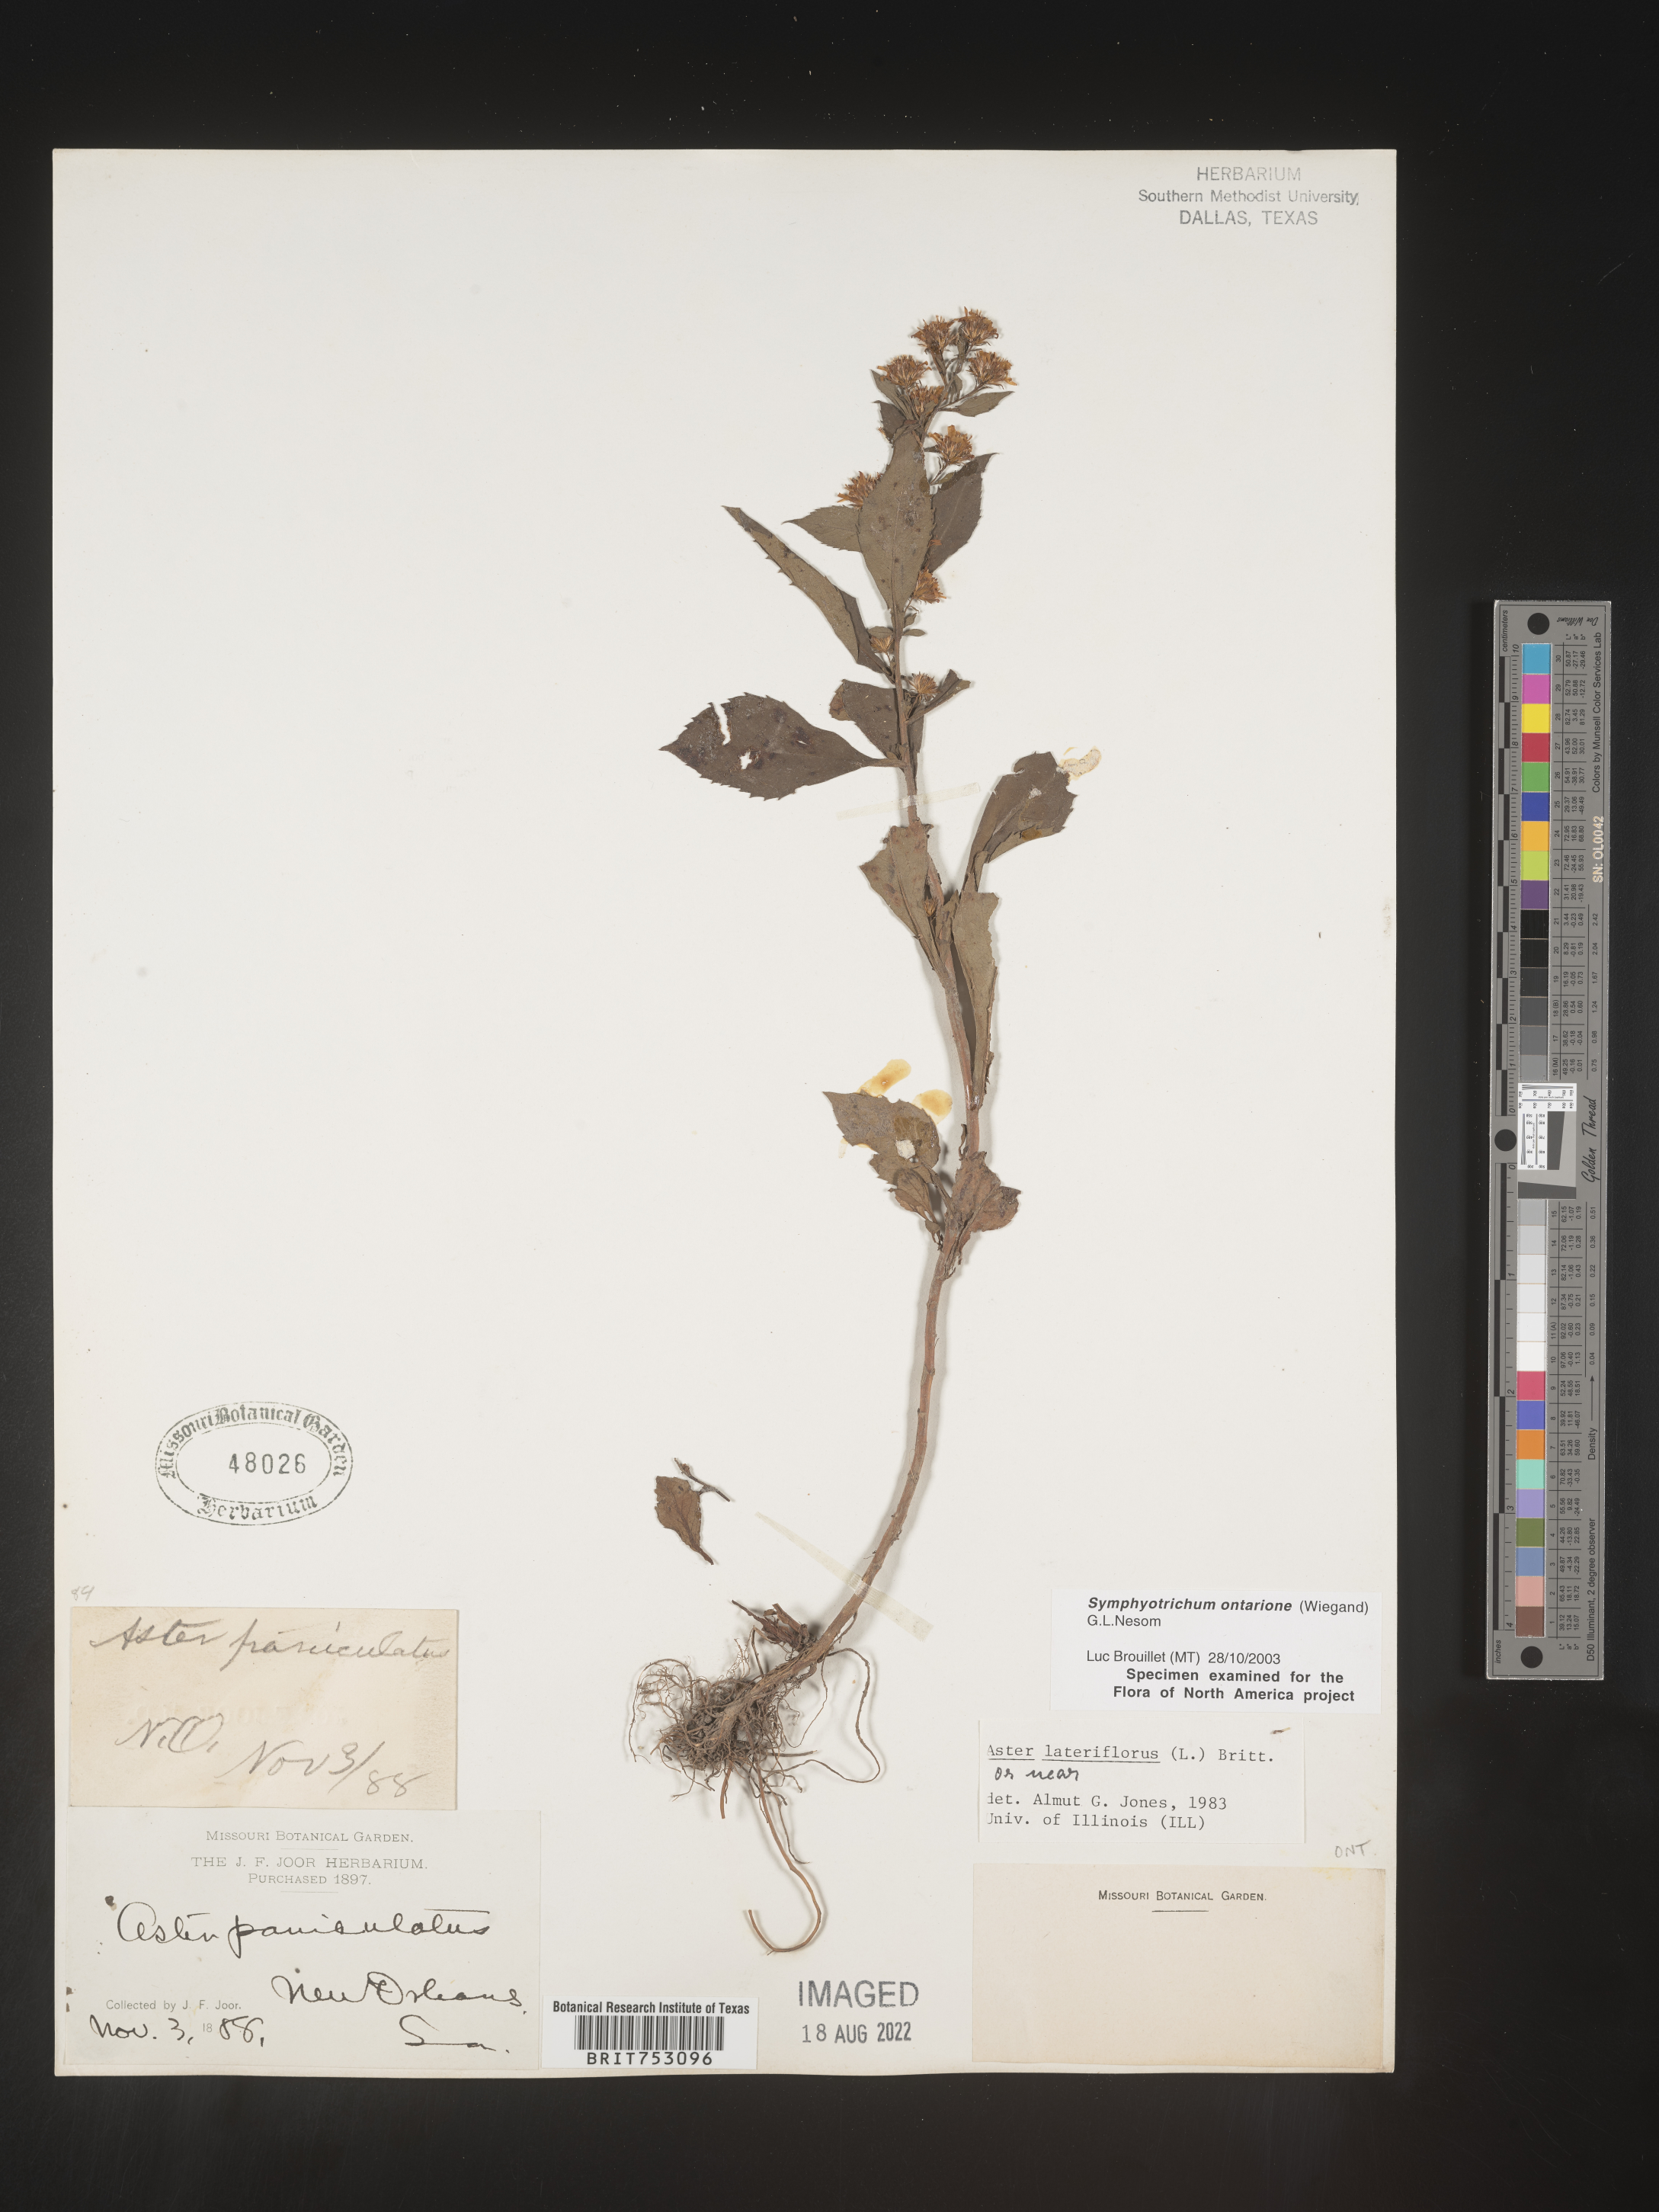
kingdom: Plantae
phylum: Tracheophyta
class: Magnoliopsida
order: Asterales
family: Asteraceae
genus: Symphyotrichum
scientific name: Symphyotrichum ontarionis
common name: Bottomland aster
